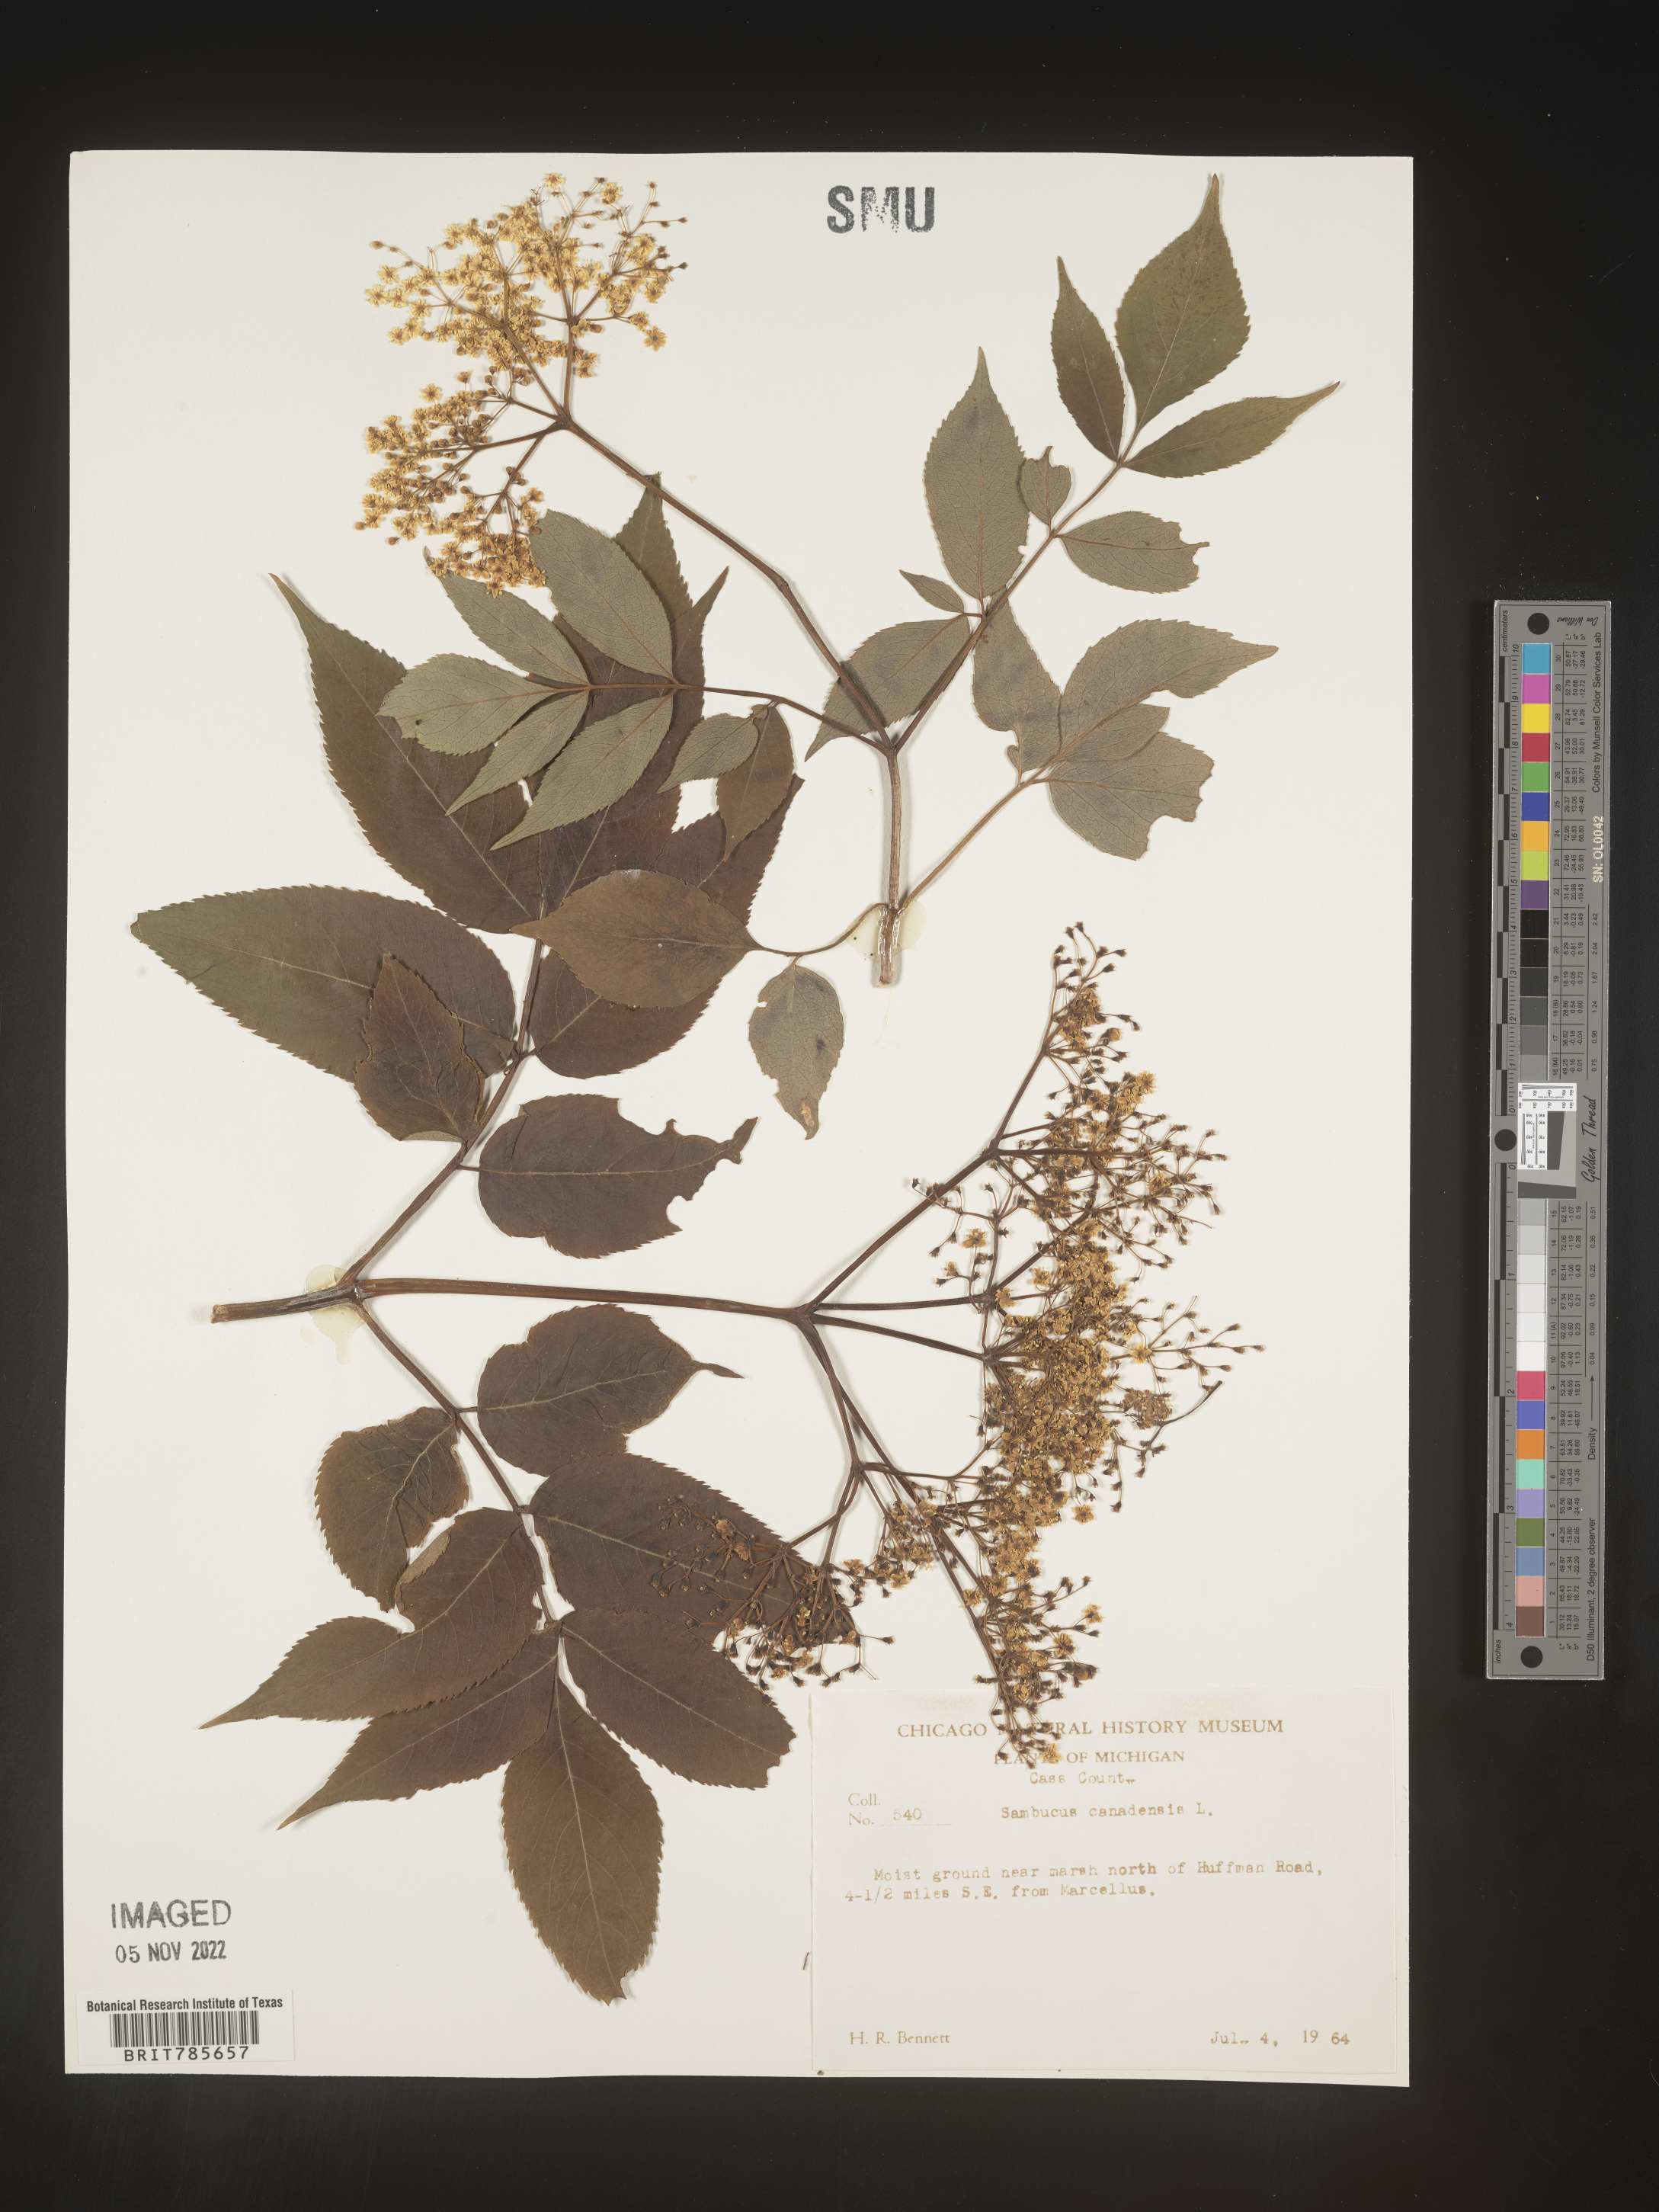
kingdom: Plantae
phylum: Tracheophyta
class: Magnoliopsida
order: Dipsacales
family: Viburnaceae
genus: Sambucus
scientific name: Sambucus canadensis
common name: American elder
